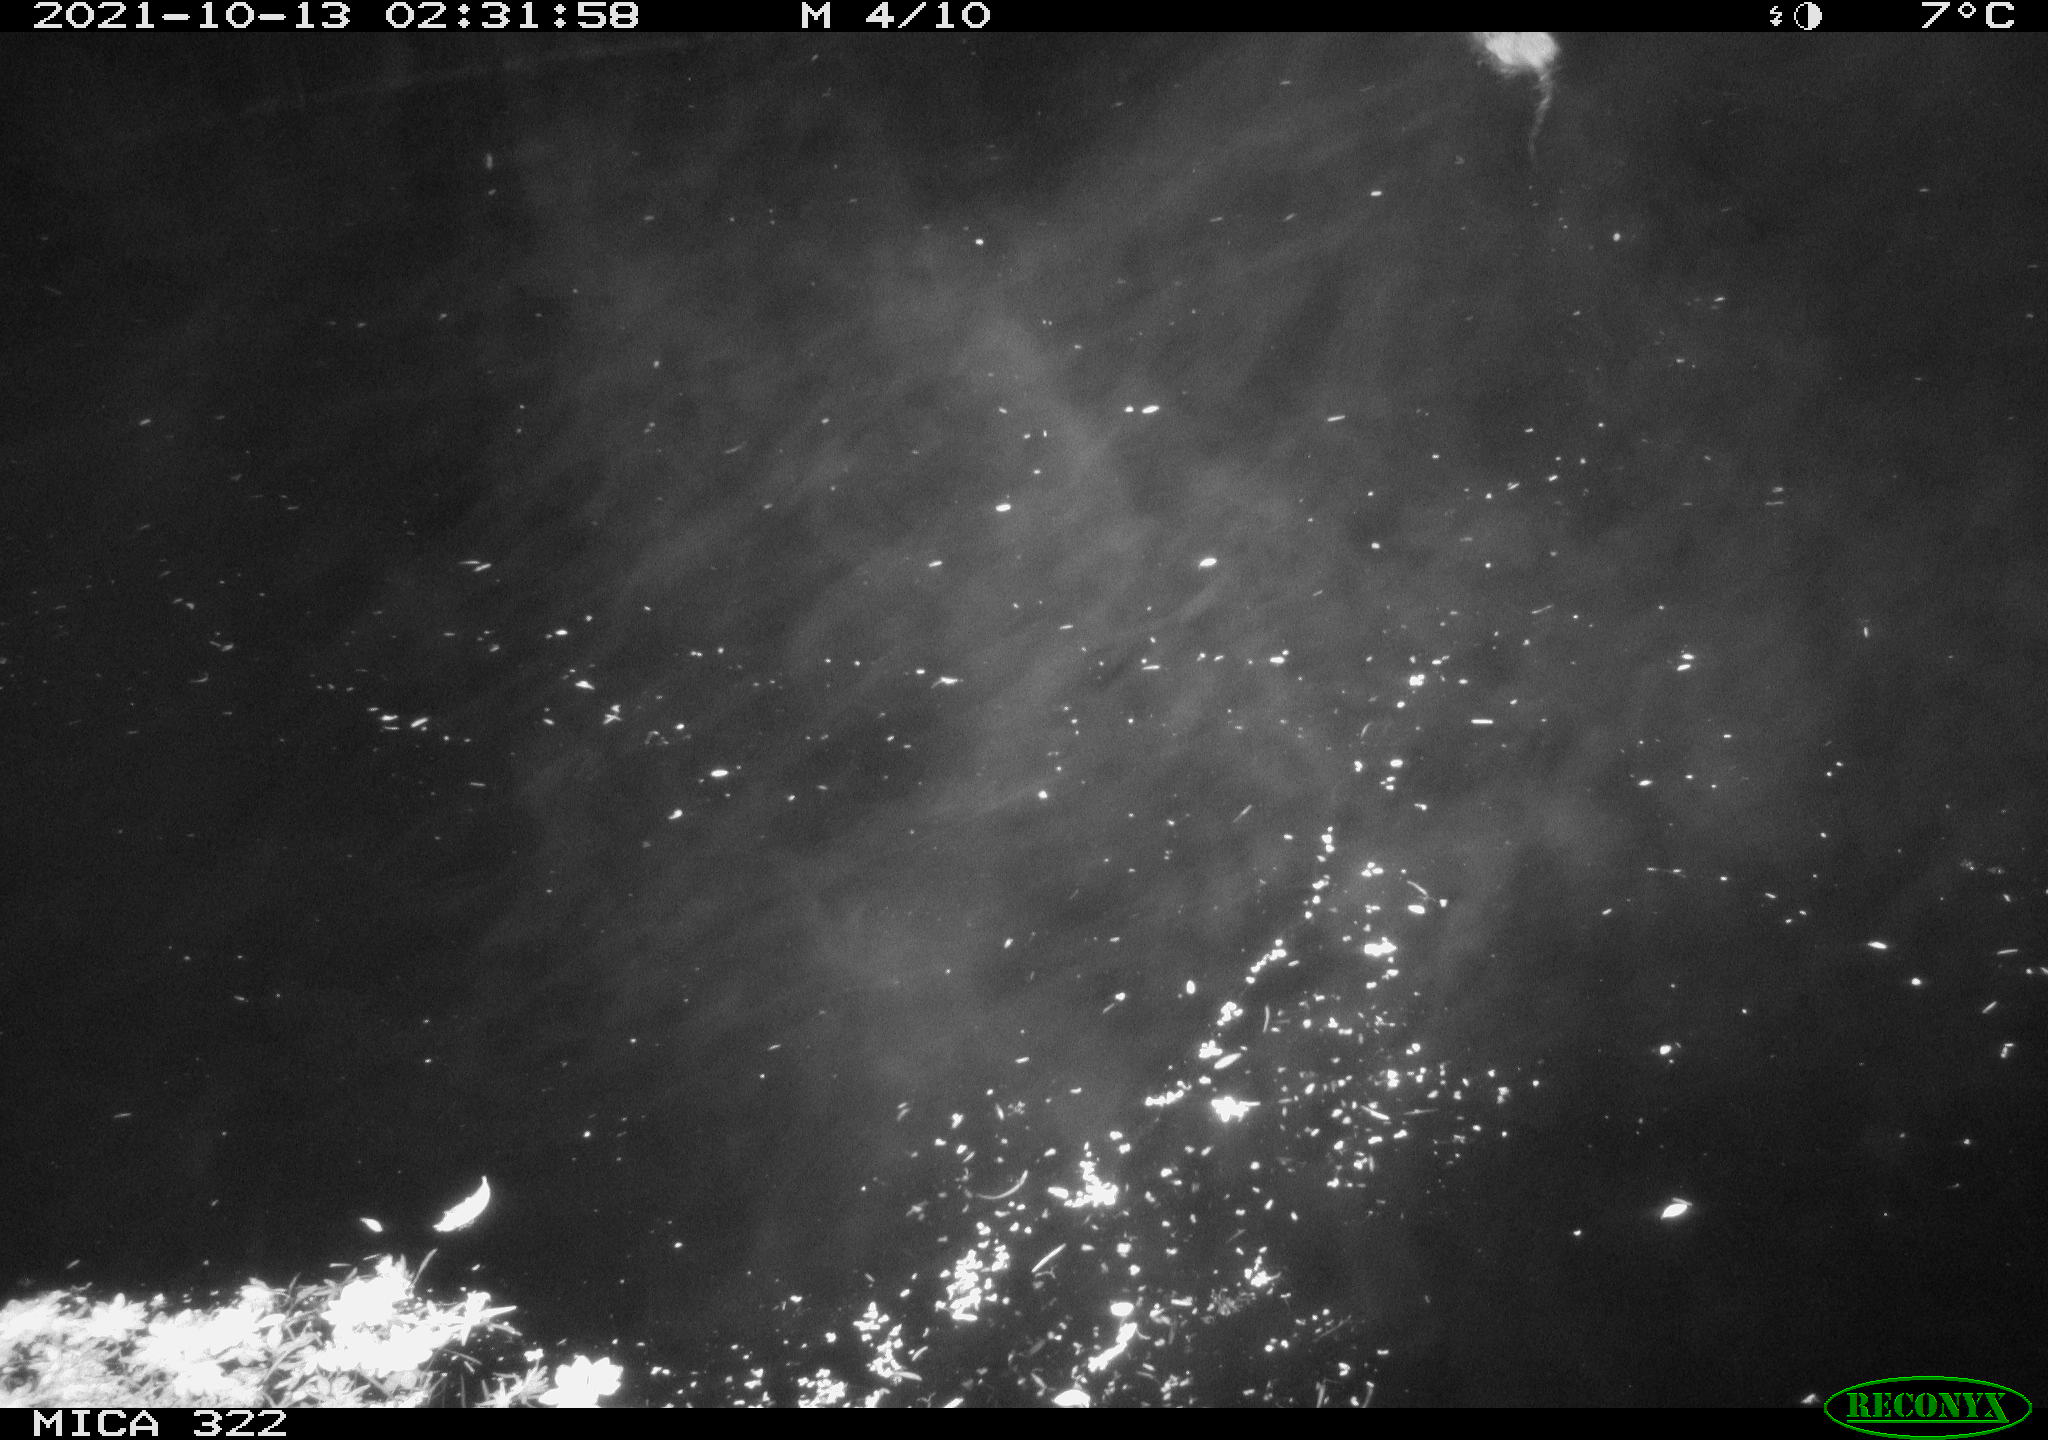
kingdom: Animalia
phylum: Chordata
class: Mammalia
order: Rodentia
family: Muridae
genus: Rattus
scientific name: Rattus norvegicus
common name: Brown rat
